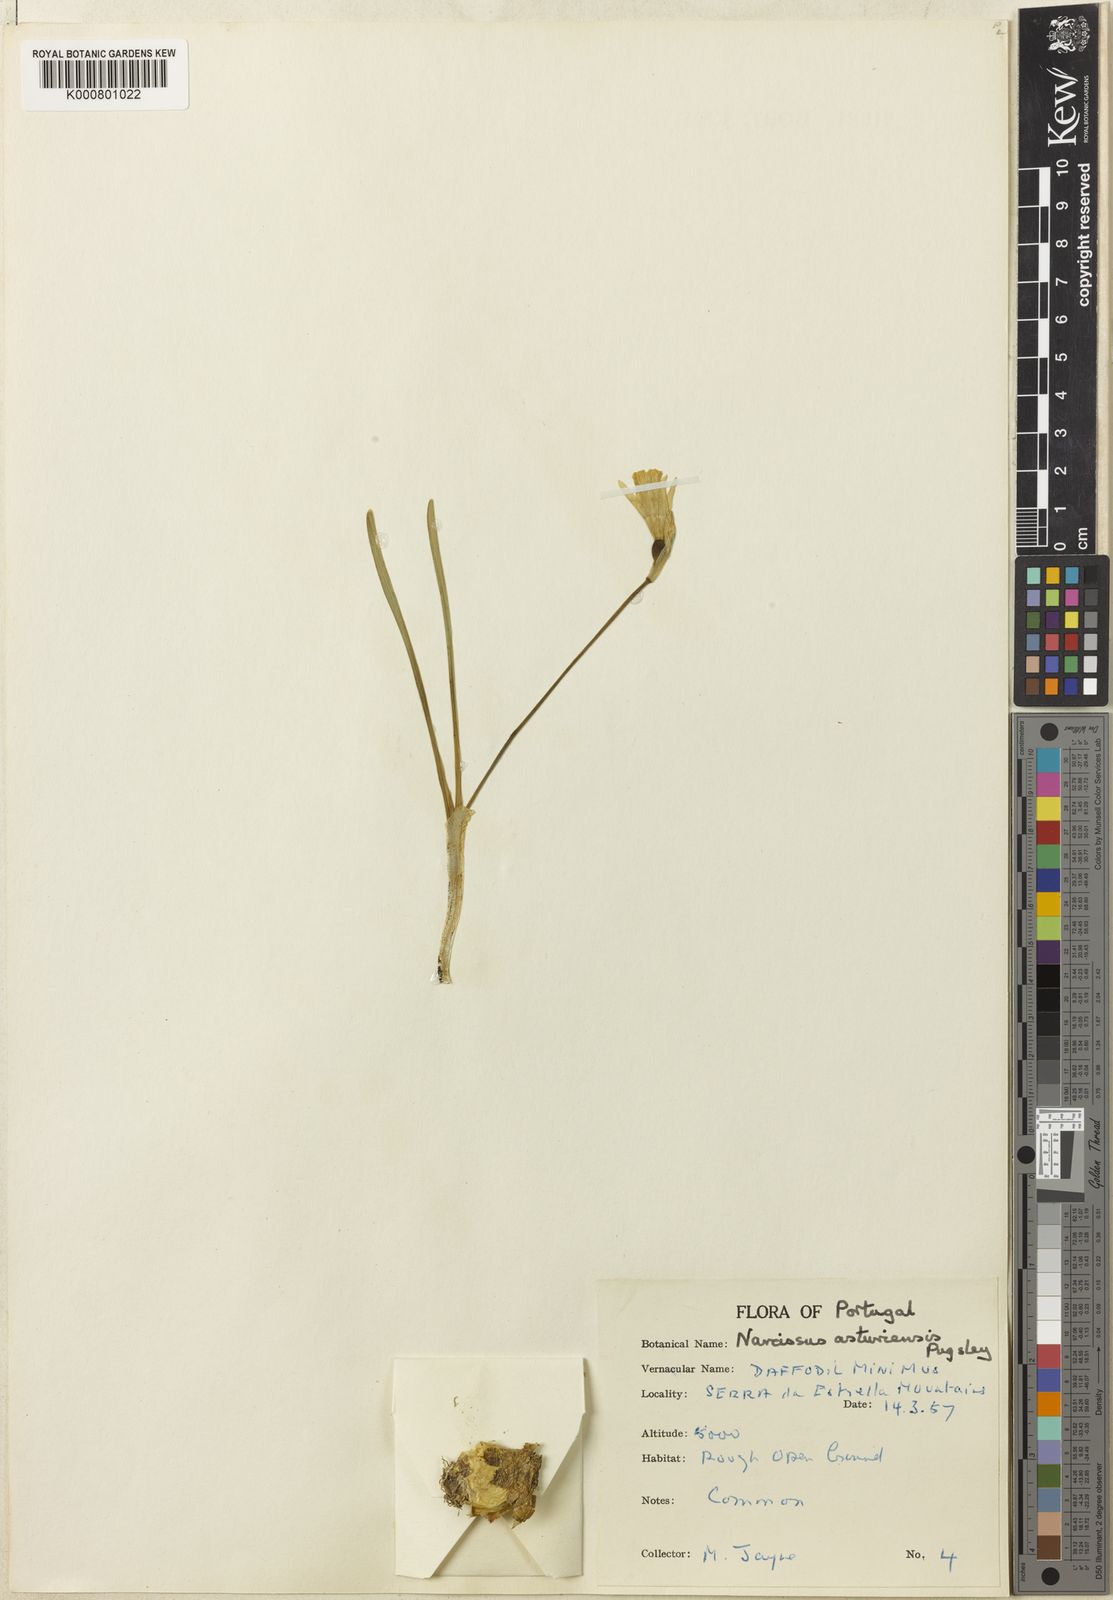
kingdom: Plantae
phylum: Tracheophyta
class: Liliopsida
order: Asparagales
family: Amaryllidaceae
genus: Narcissus
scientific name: Narcissus cuneiflorus
